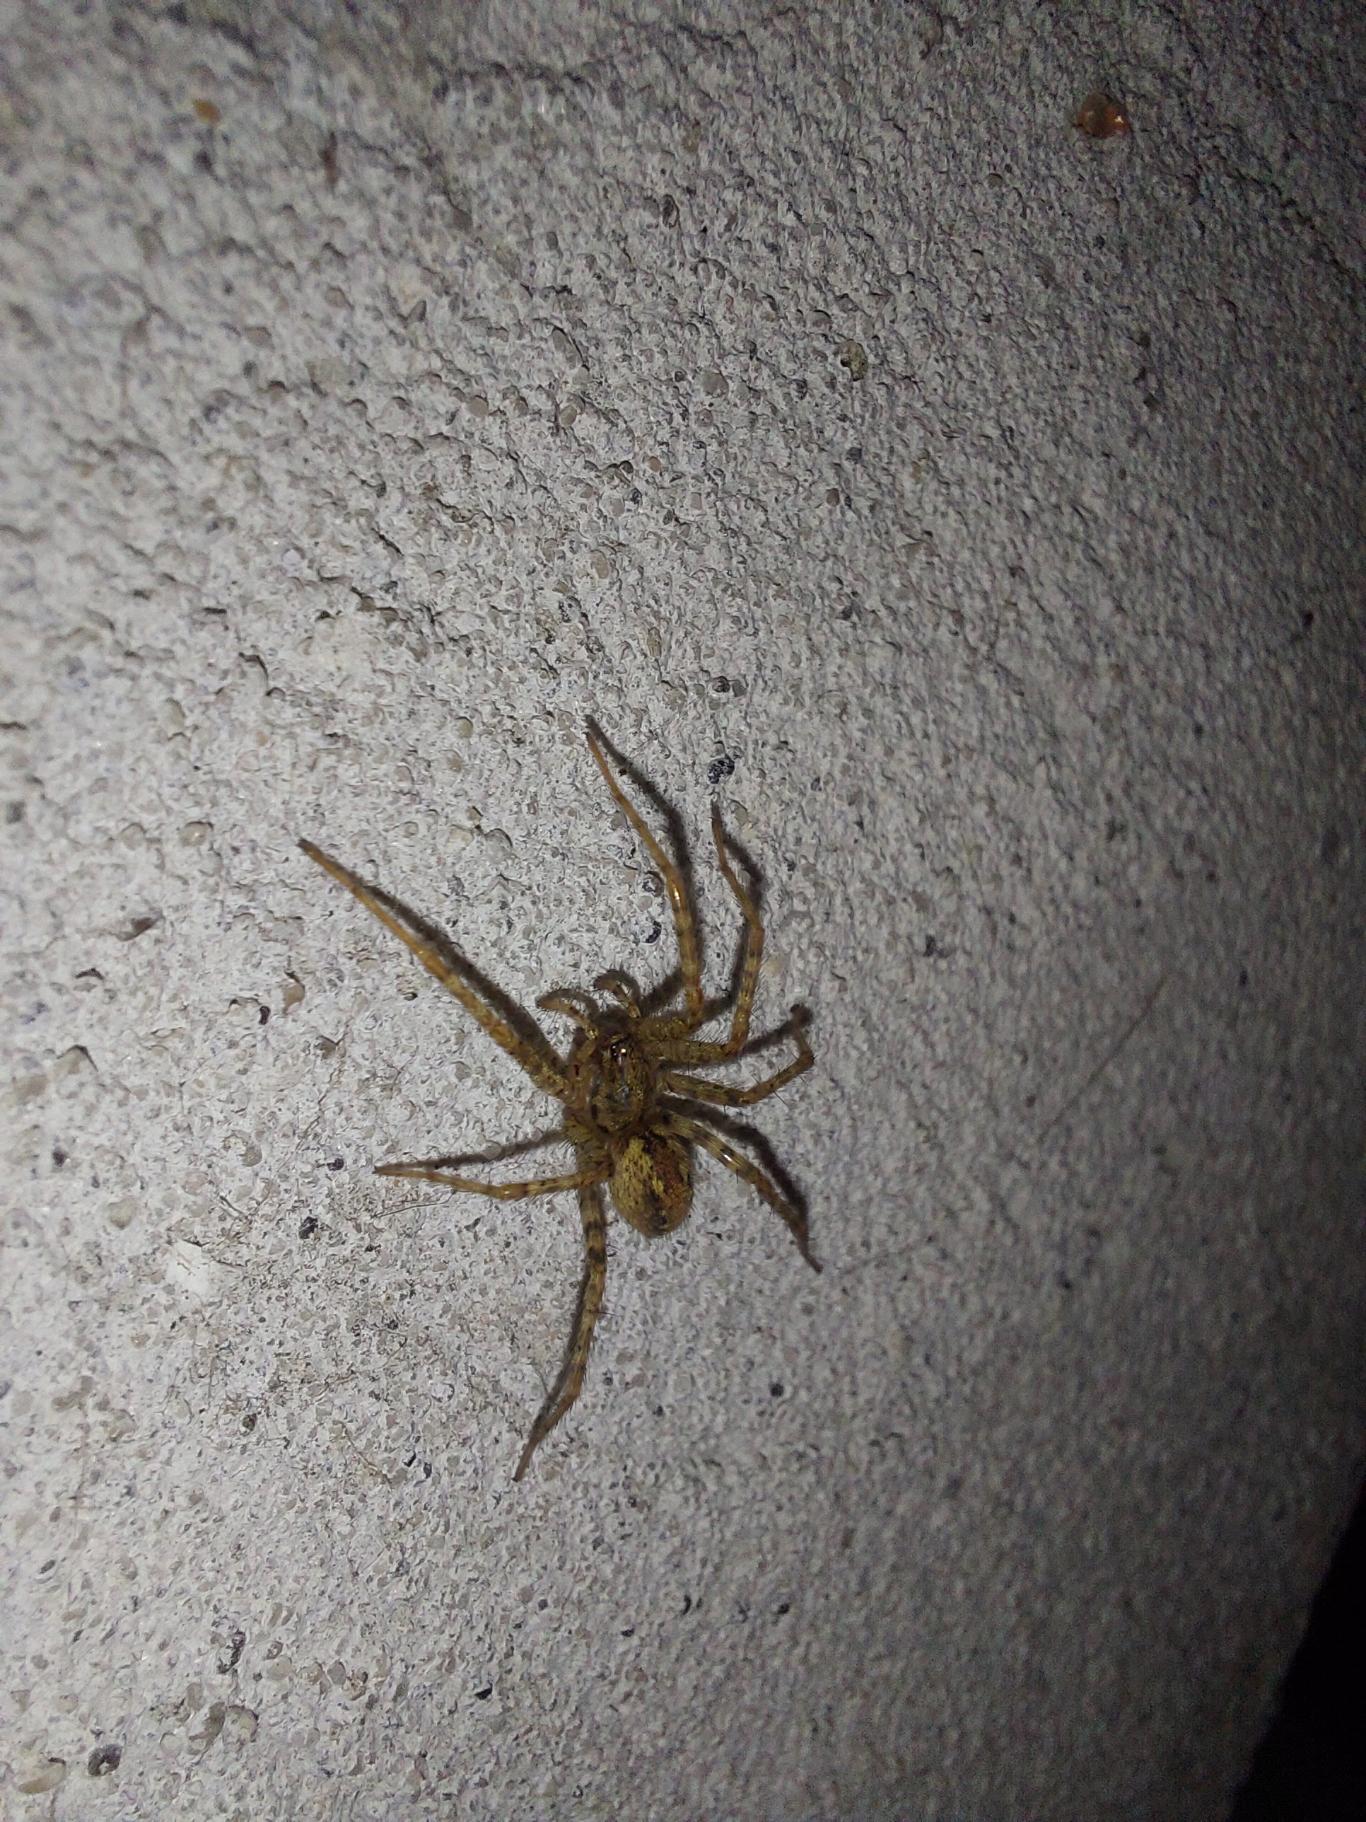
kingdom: Animalia
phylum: Arthropoda
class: Arachnida
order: Araneae
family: Agelenidae
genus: Tegenaria
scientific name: Tegenaria ferruginea
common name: Rustrød husedderkop
